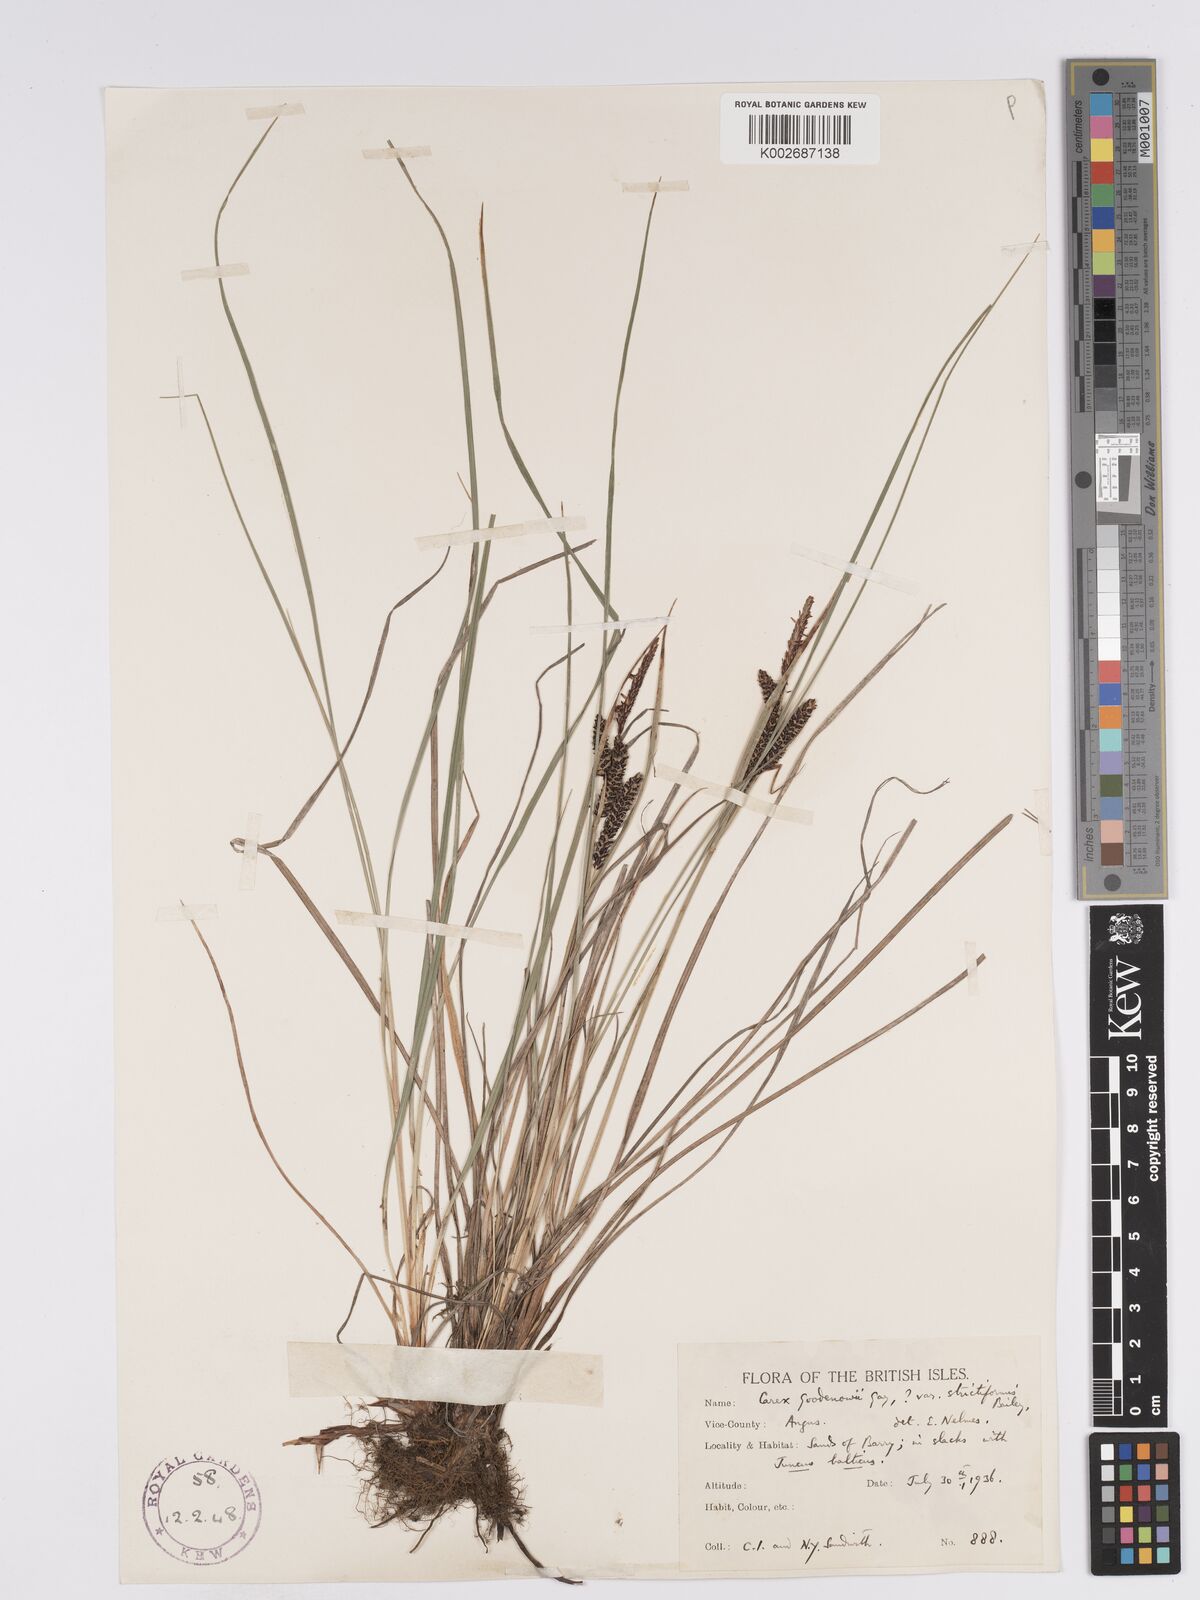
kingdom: Plantae
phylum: Tracheophyta
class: Liliopsida
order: Poales
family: Cyperaceae
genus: Carex
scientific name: Carex nigra
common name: Common sedge
